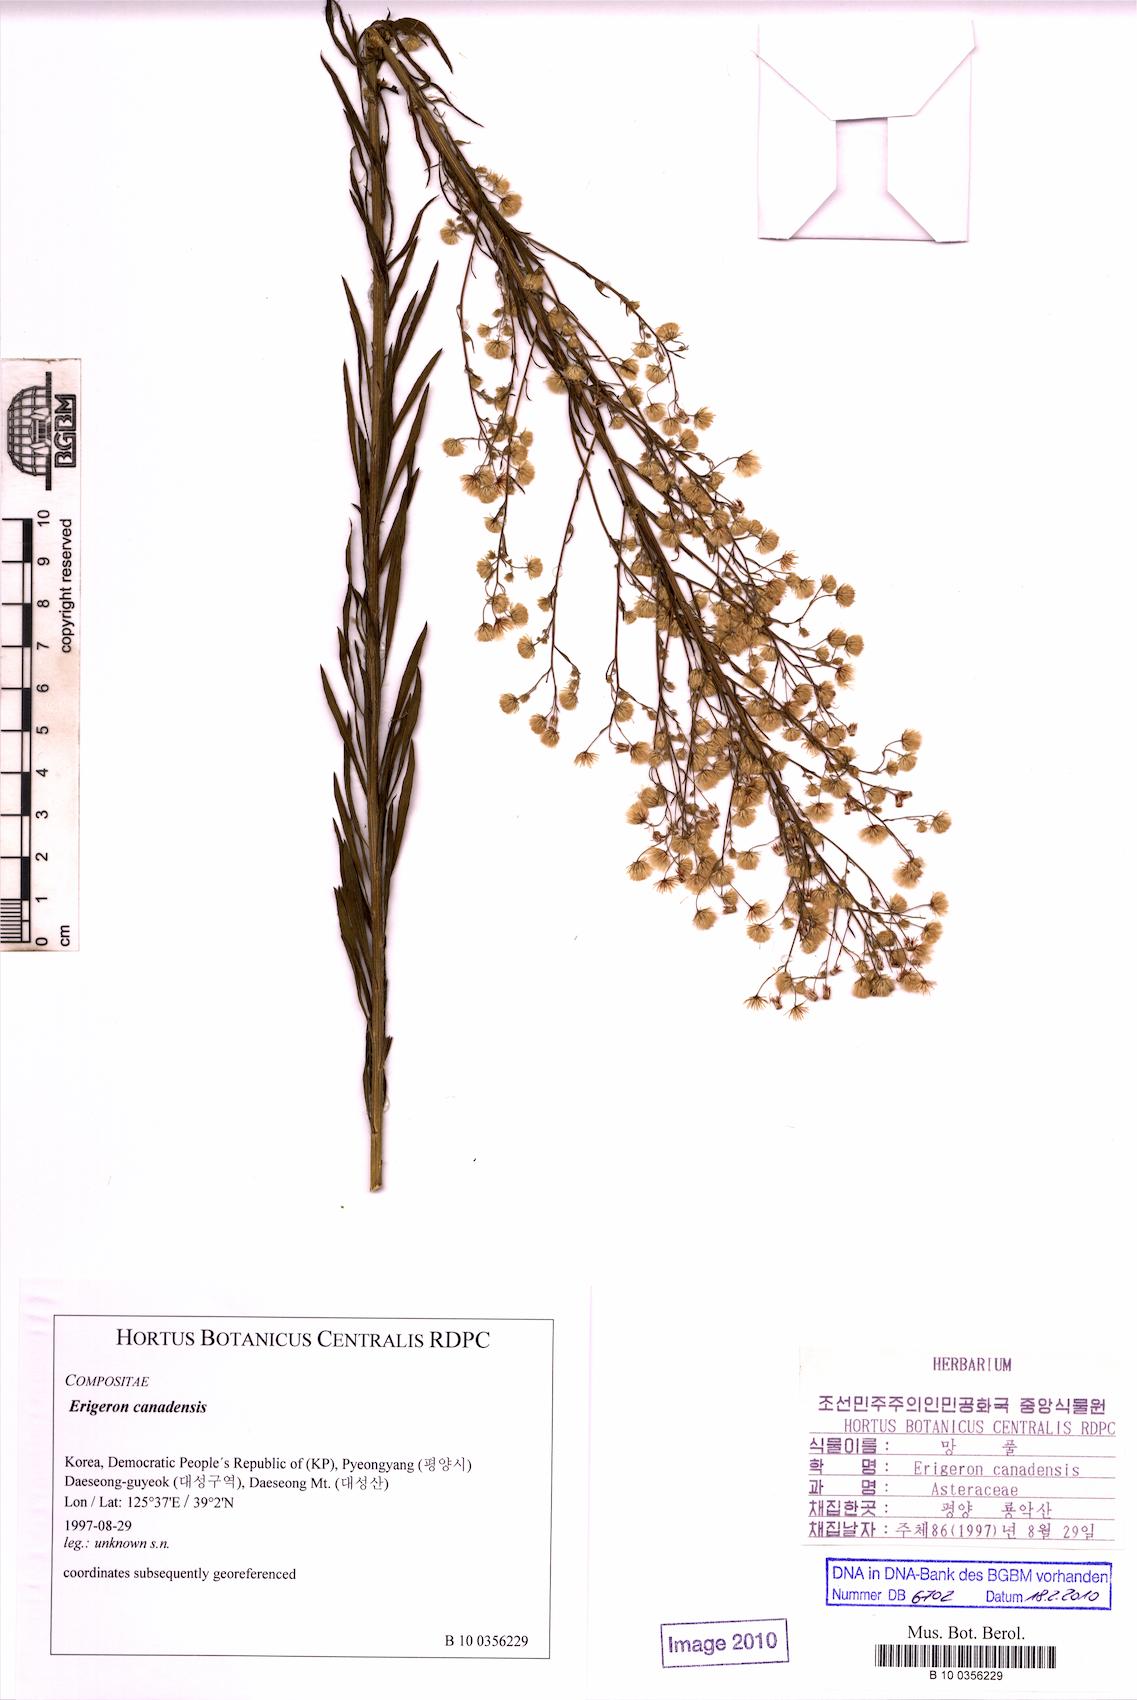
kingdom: Plantae
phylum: Tracheophyta
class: Magnoliopsida
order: Asterales
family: Asteraceae
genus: Erigeron
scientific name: Erigeron canadensis
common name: Canadian fleabane
